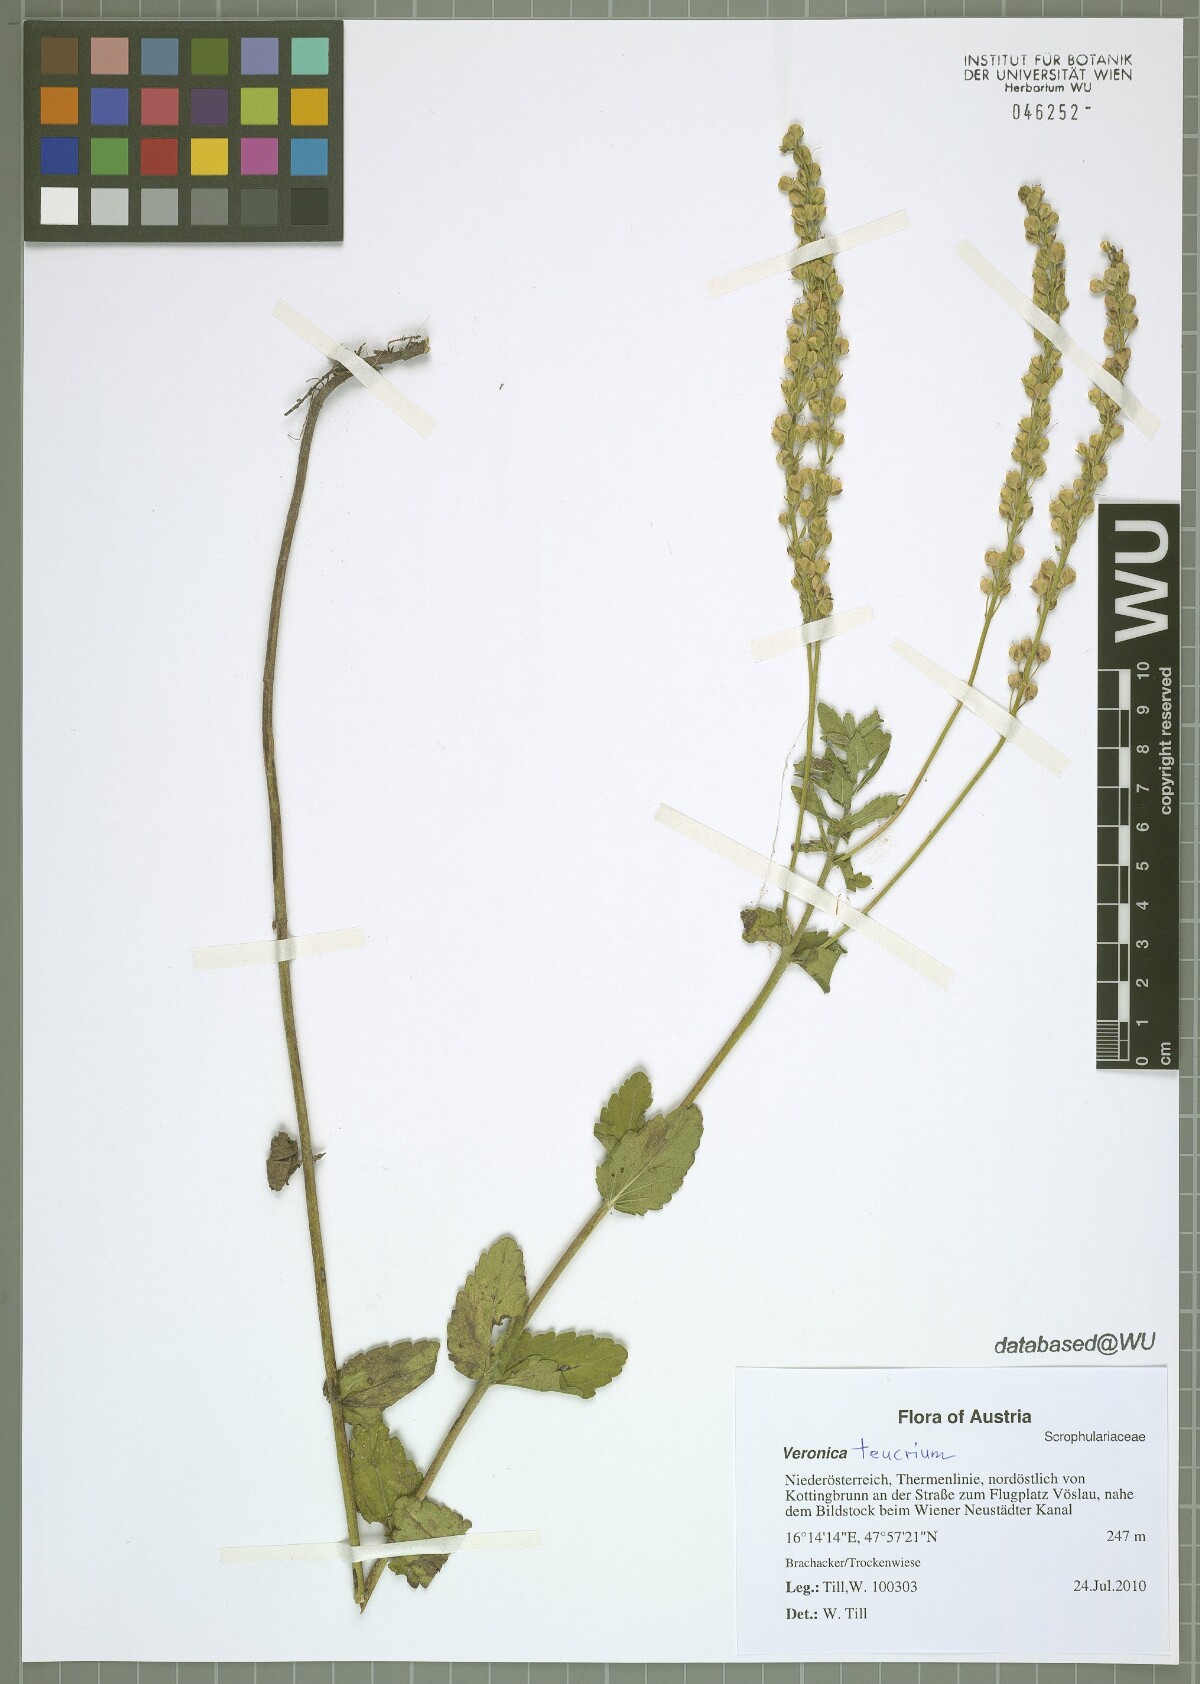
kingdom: Plantae
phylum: Tracheophyta
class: Magnoliopsida
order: Lamiales
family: Plantaginaceae
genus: Veronica
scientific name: Veronica teucrium
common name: Large speedwell
